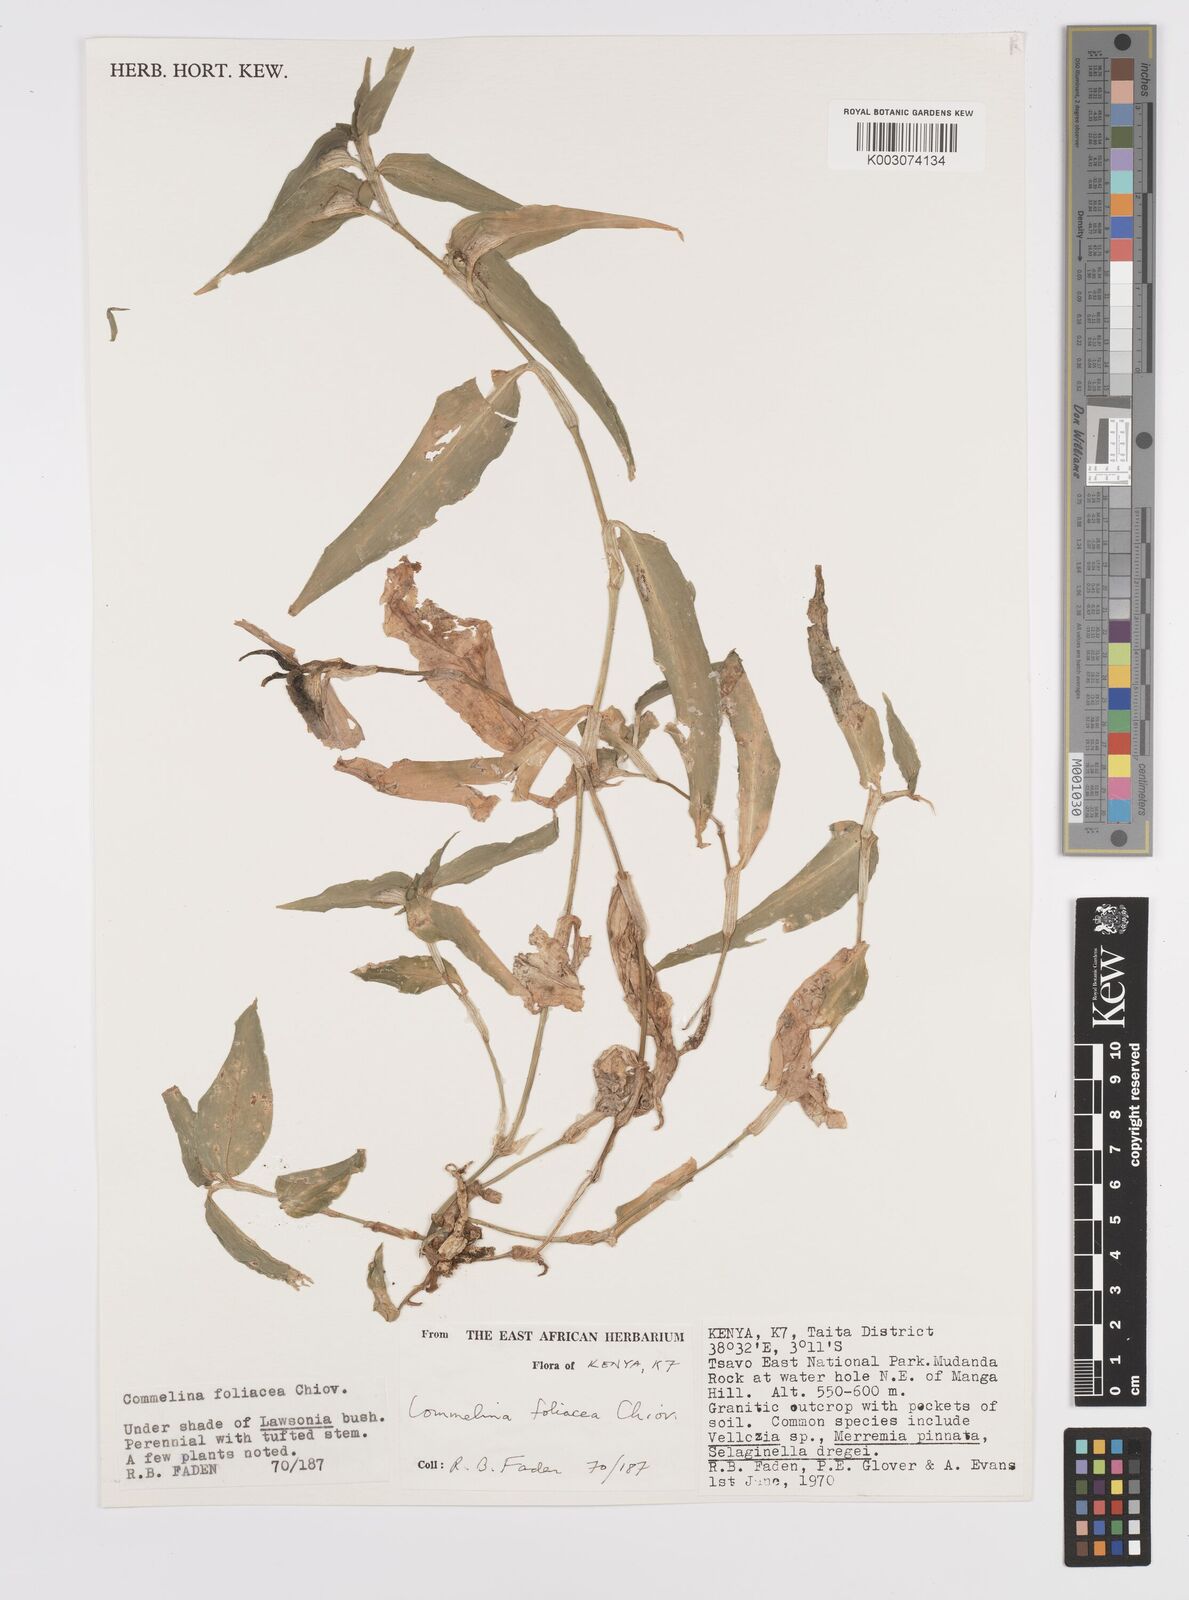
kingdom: Plantae
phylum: Tracheophyta
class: Liliopsida
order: Commelinales
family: Commelinaceae
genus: Commelina
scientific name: Commelina foliacea
